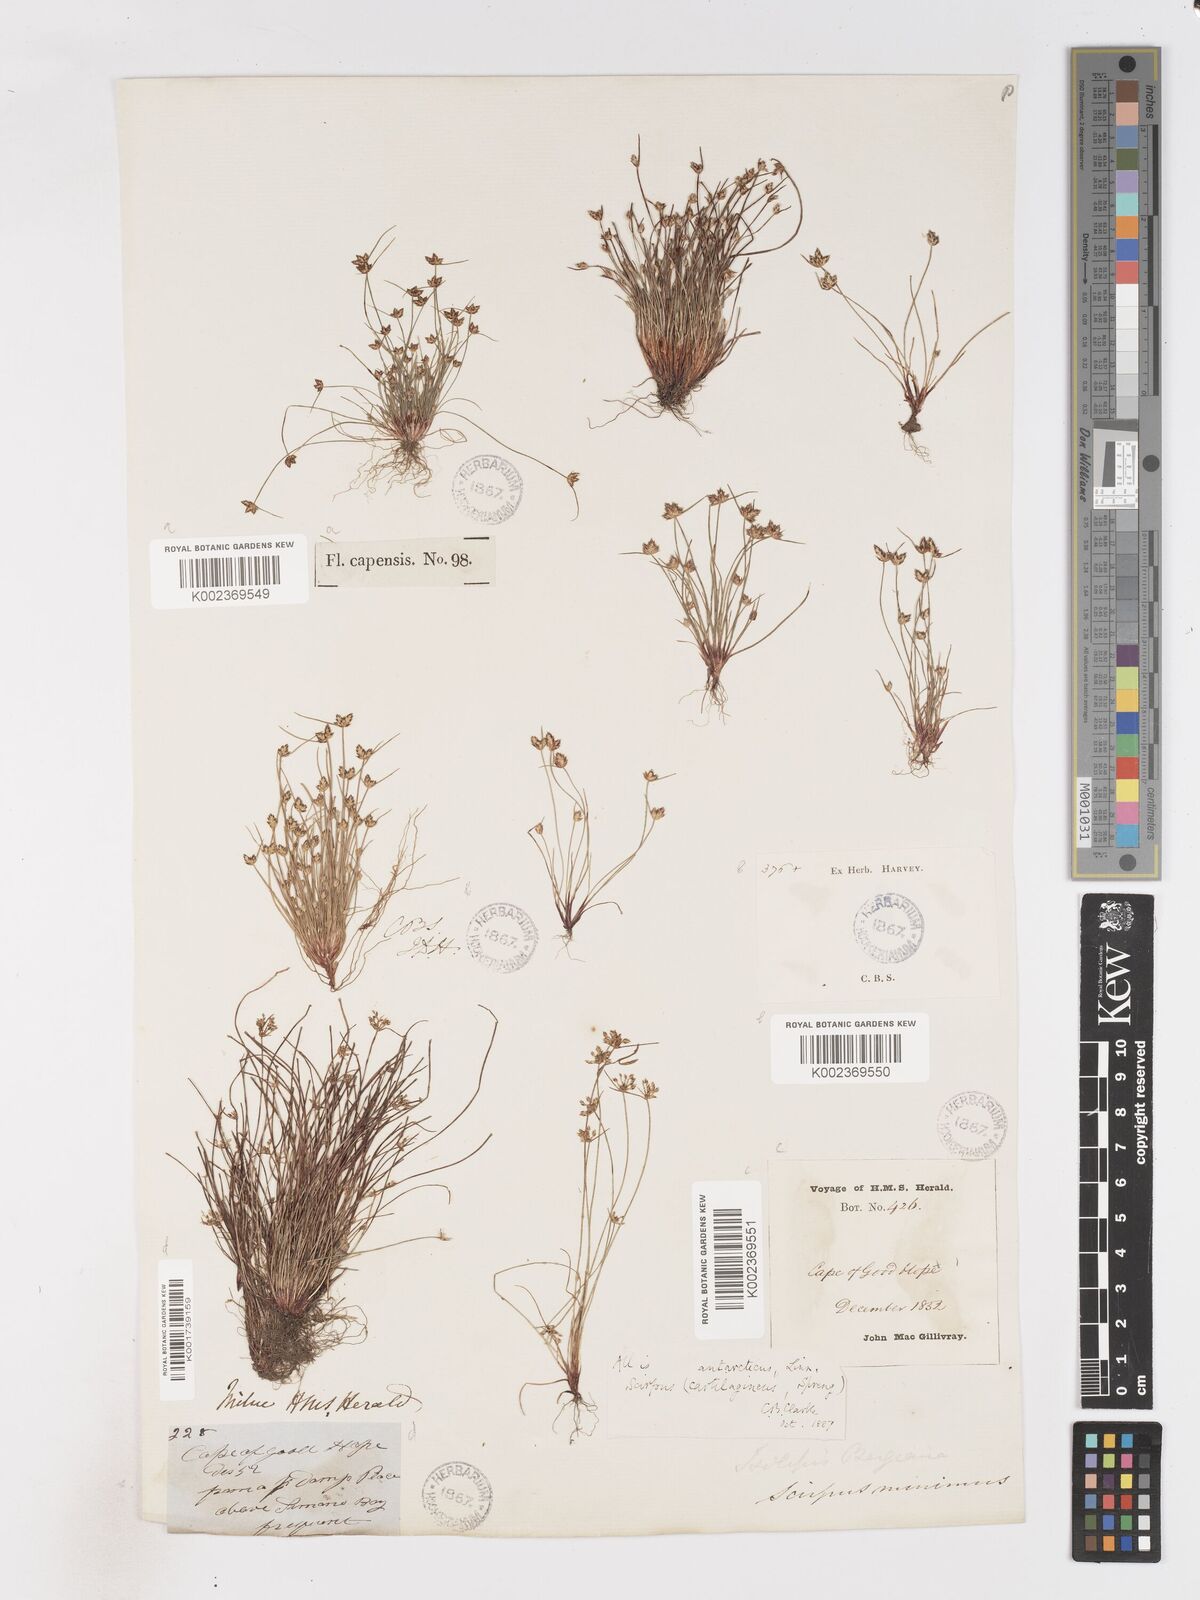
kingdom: Plantae
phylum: Tracheophyta
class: Liliopsida
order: Poales
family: Cyperaceae
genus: Isolepis
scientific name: Isolepis marginata
